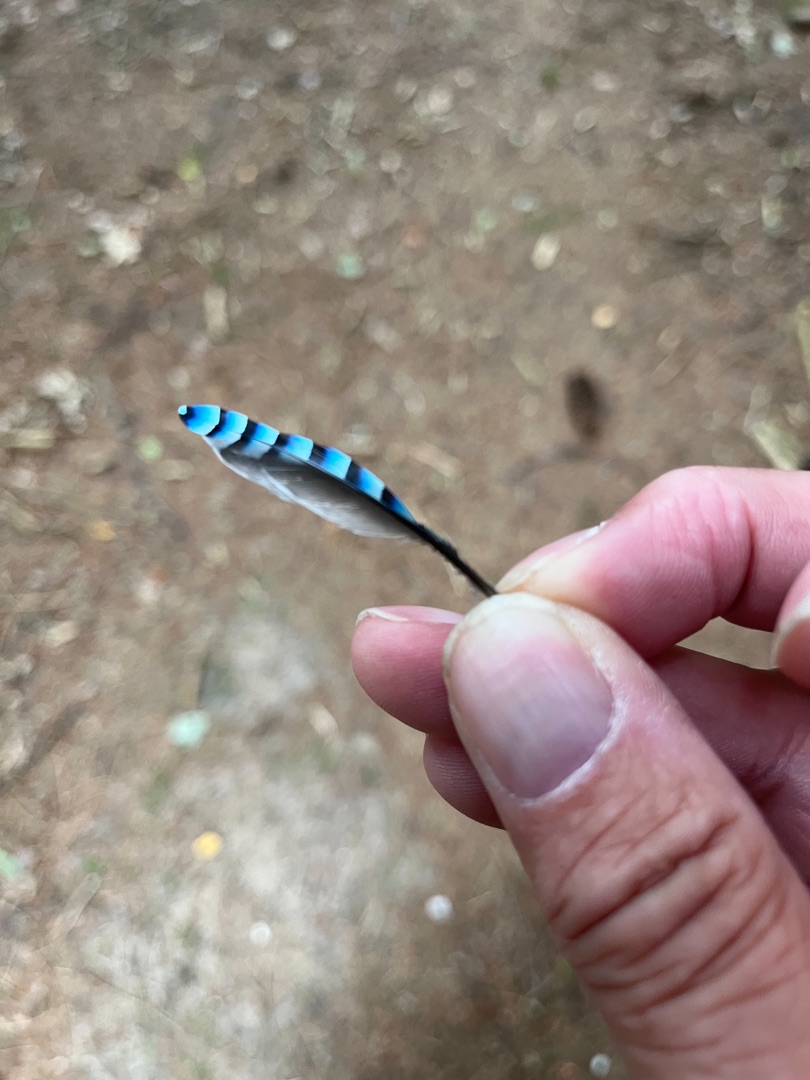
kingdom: Animalia
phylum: Chordata
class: Aves
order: Passeriformes
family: Corvidae
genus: Garrulus
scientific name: Garrulus glandarius
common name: Skovskade
